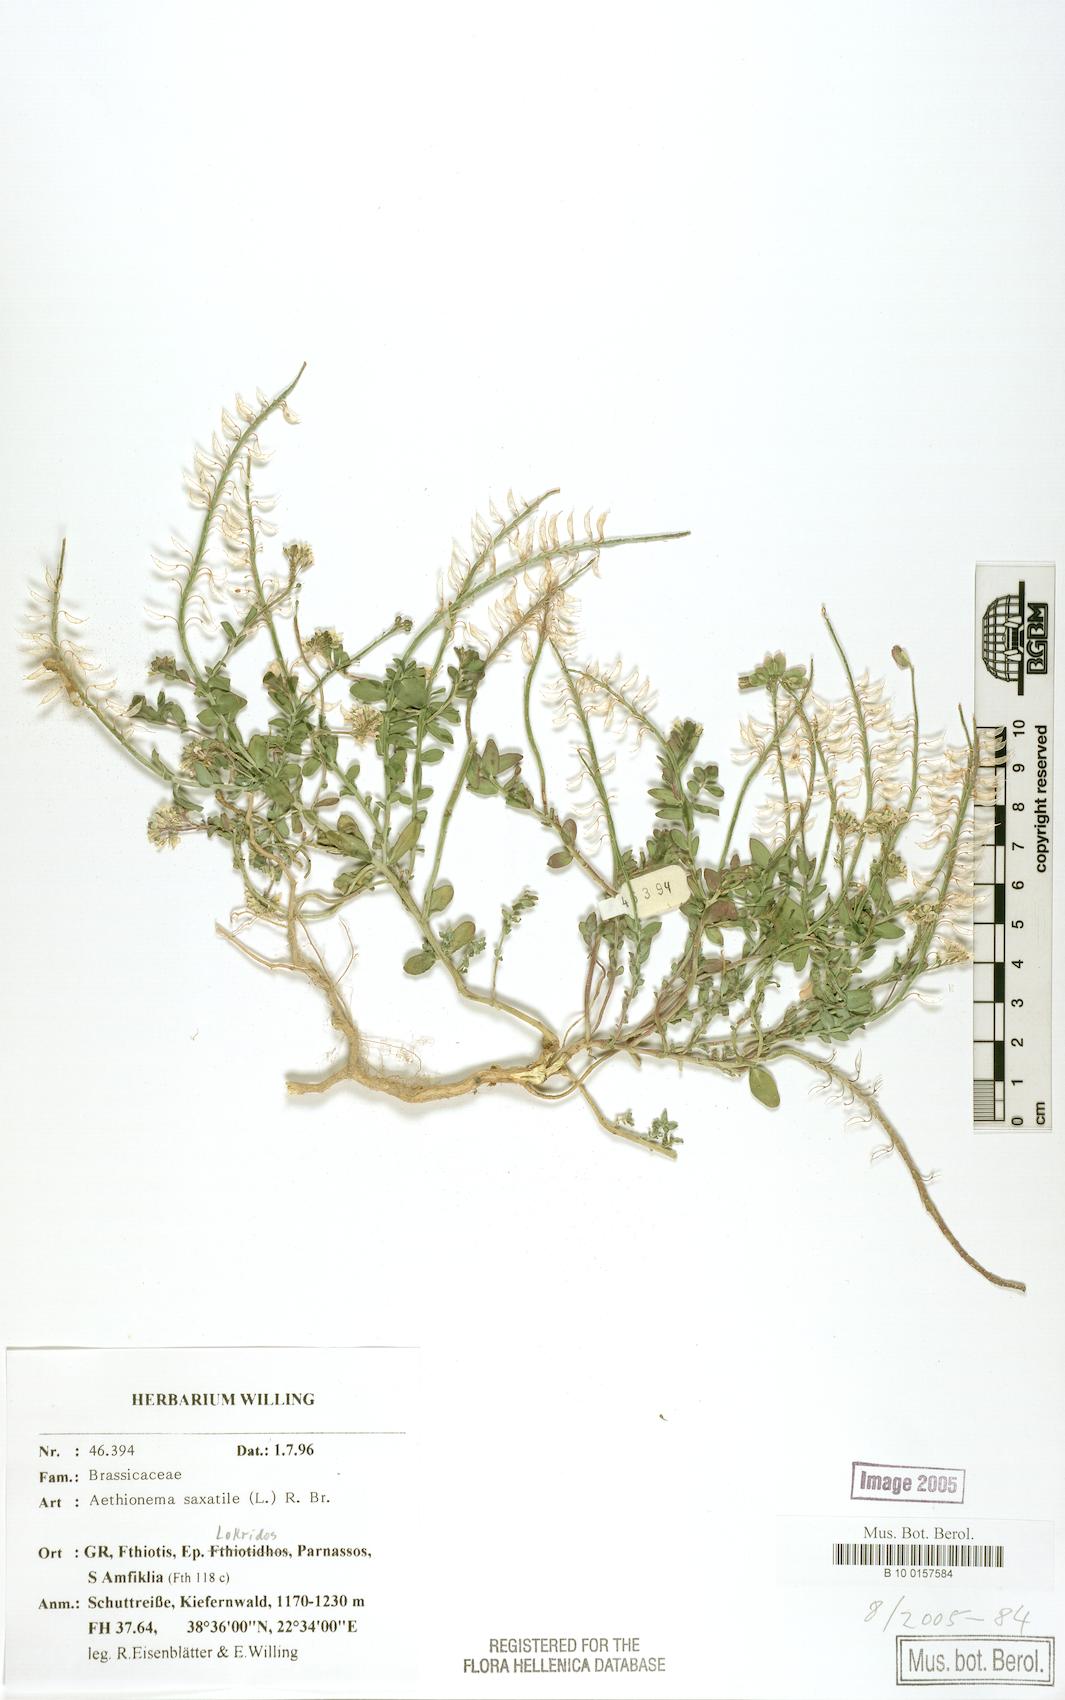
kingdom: Plantae
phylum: Tracheophyta
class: Magnoliopsida
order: Brassicales
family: Brassicaceae
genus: Aethionema
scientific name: Aethionema saxatile
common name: Burnt candytuft
